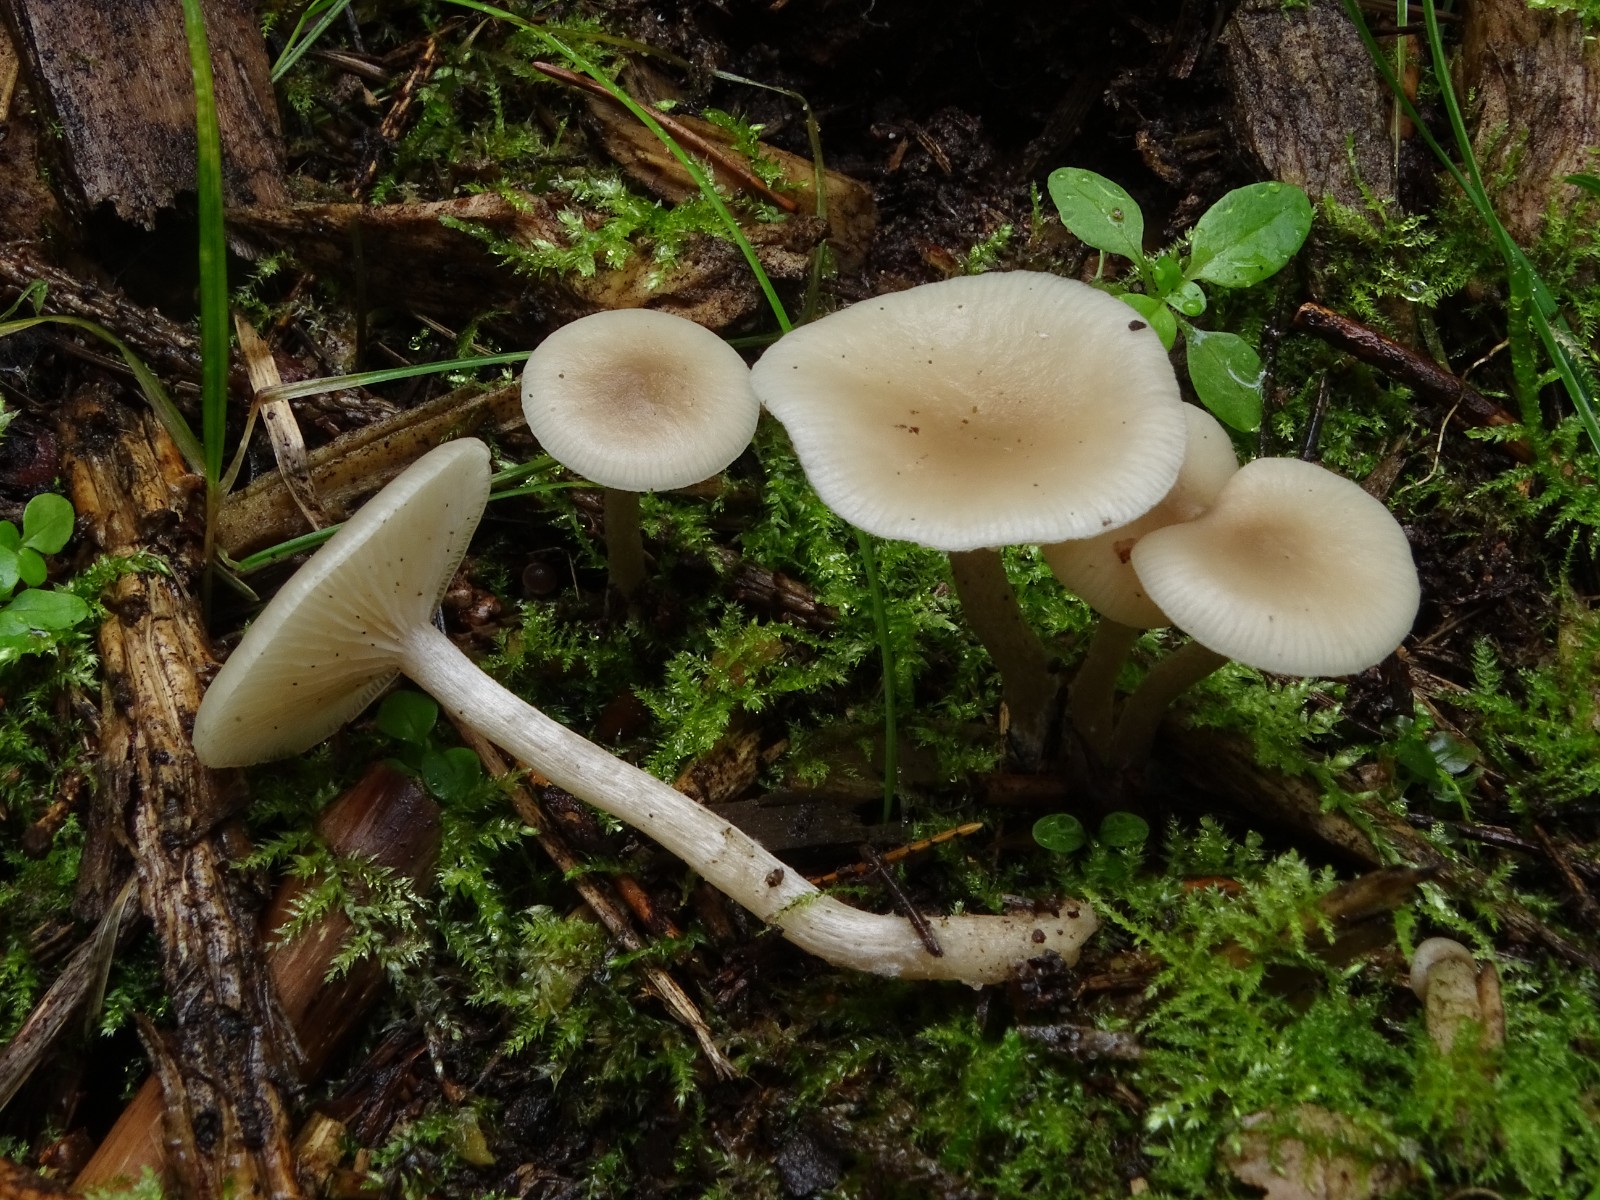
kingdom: Fungi
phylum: Basidiomycota
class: Agaricomycetes
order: Agaricales
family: Tricholomataceae
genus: Clitocybe
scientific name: Clitocybe fragrans
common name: vellugtende tragthat
